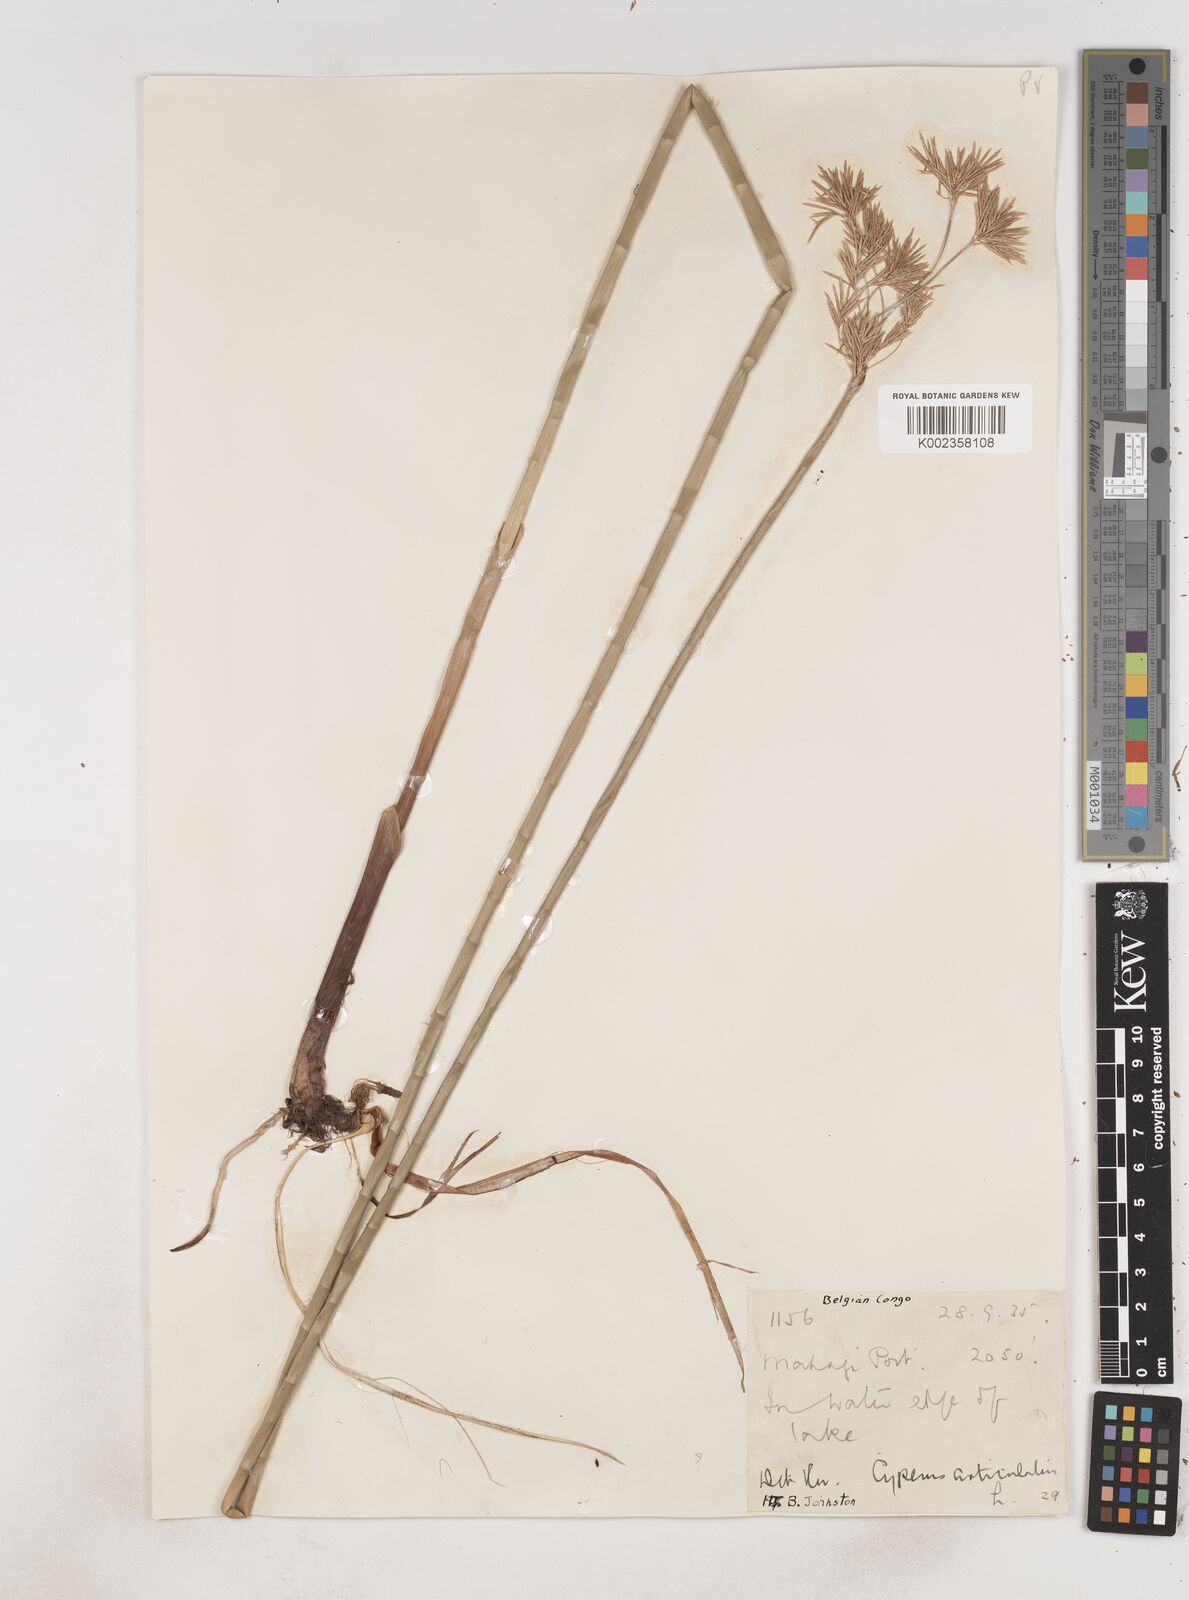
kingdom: Plantae
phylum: Tracheophyta
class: Liliopsida
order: Poales
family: Cyperaceae
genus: Cyperus
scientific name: Cyperus articulatus
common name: Jointed flatsedge
